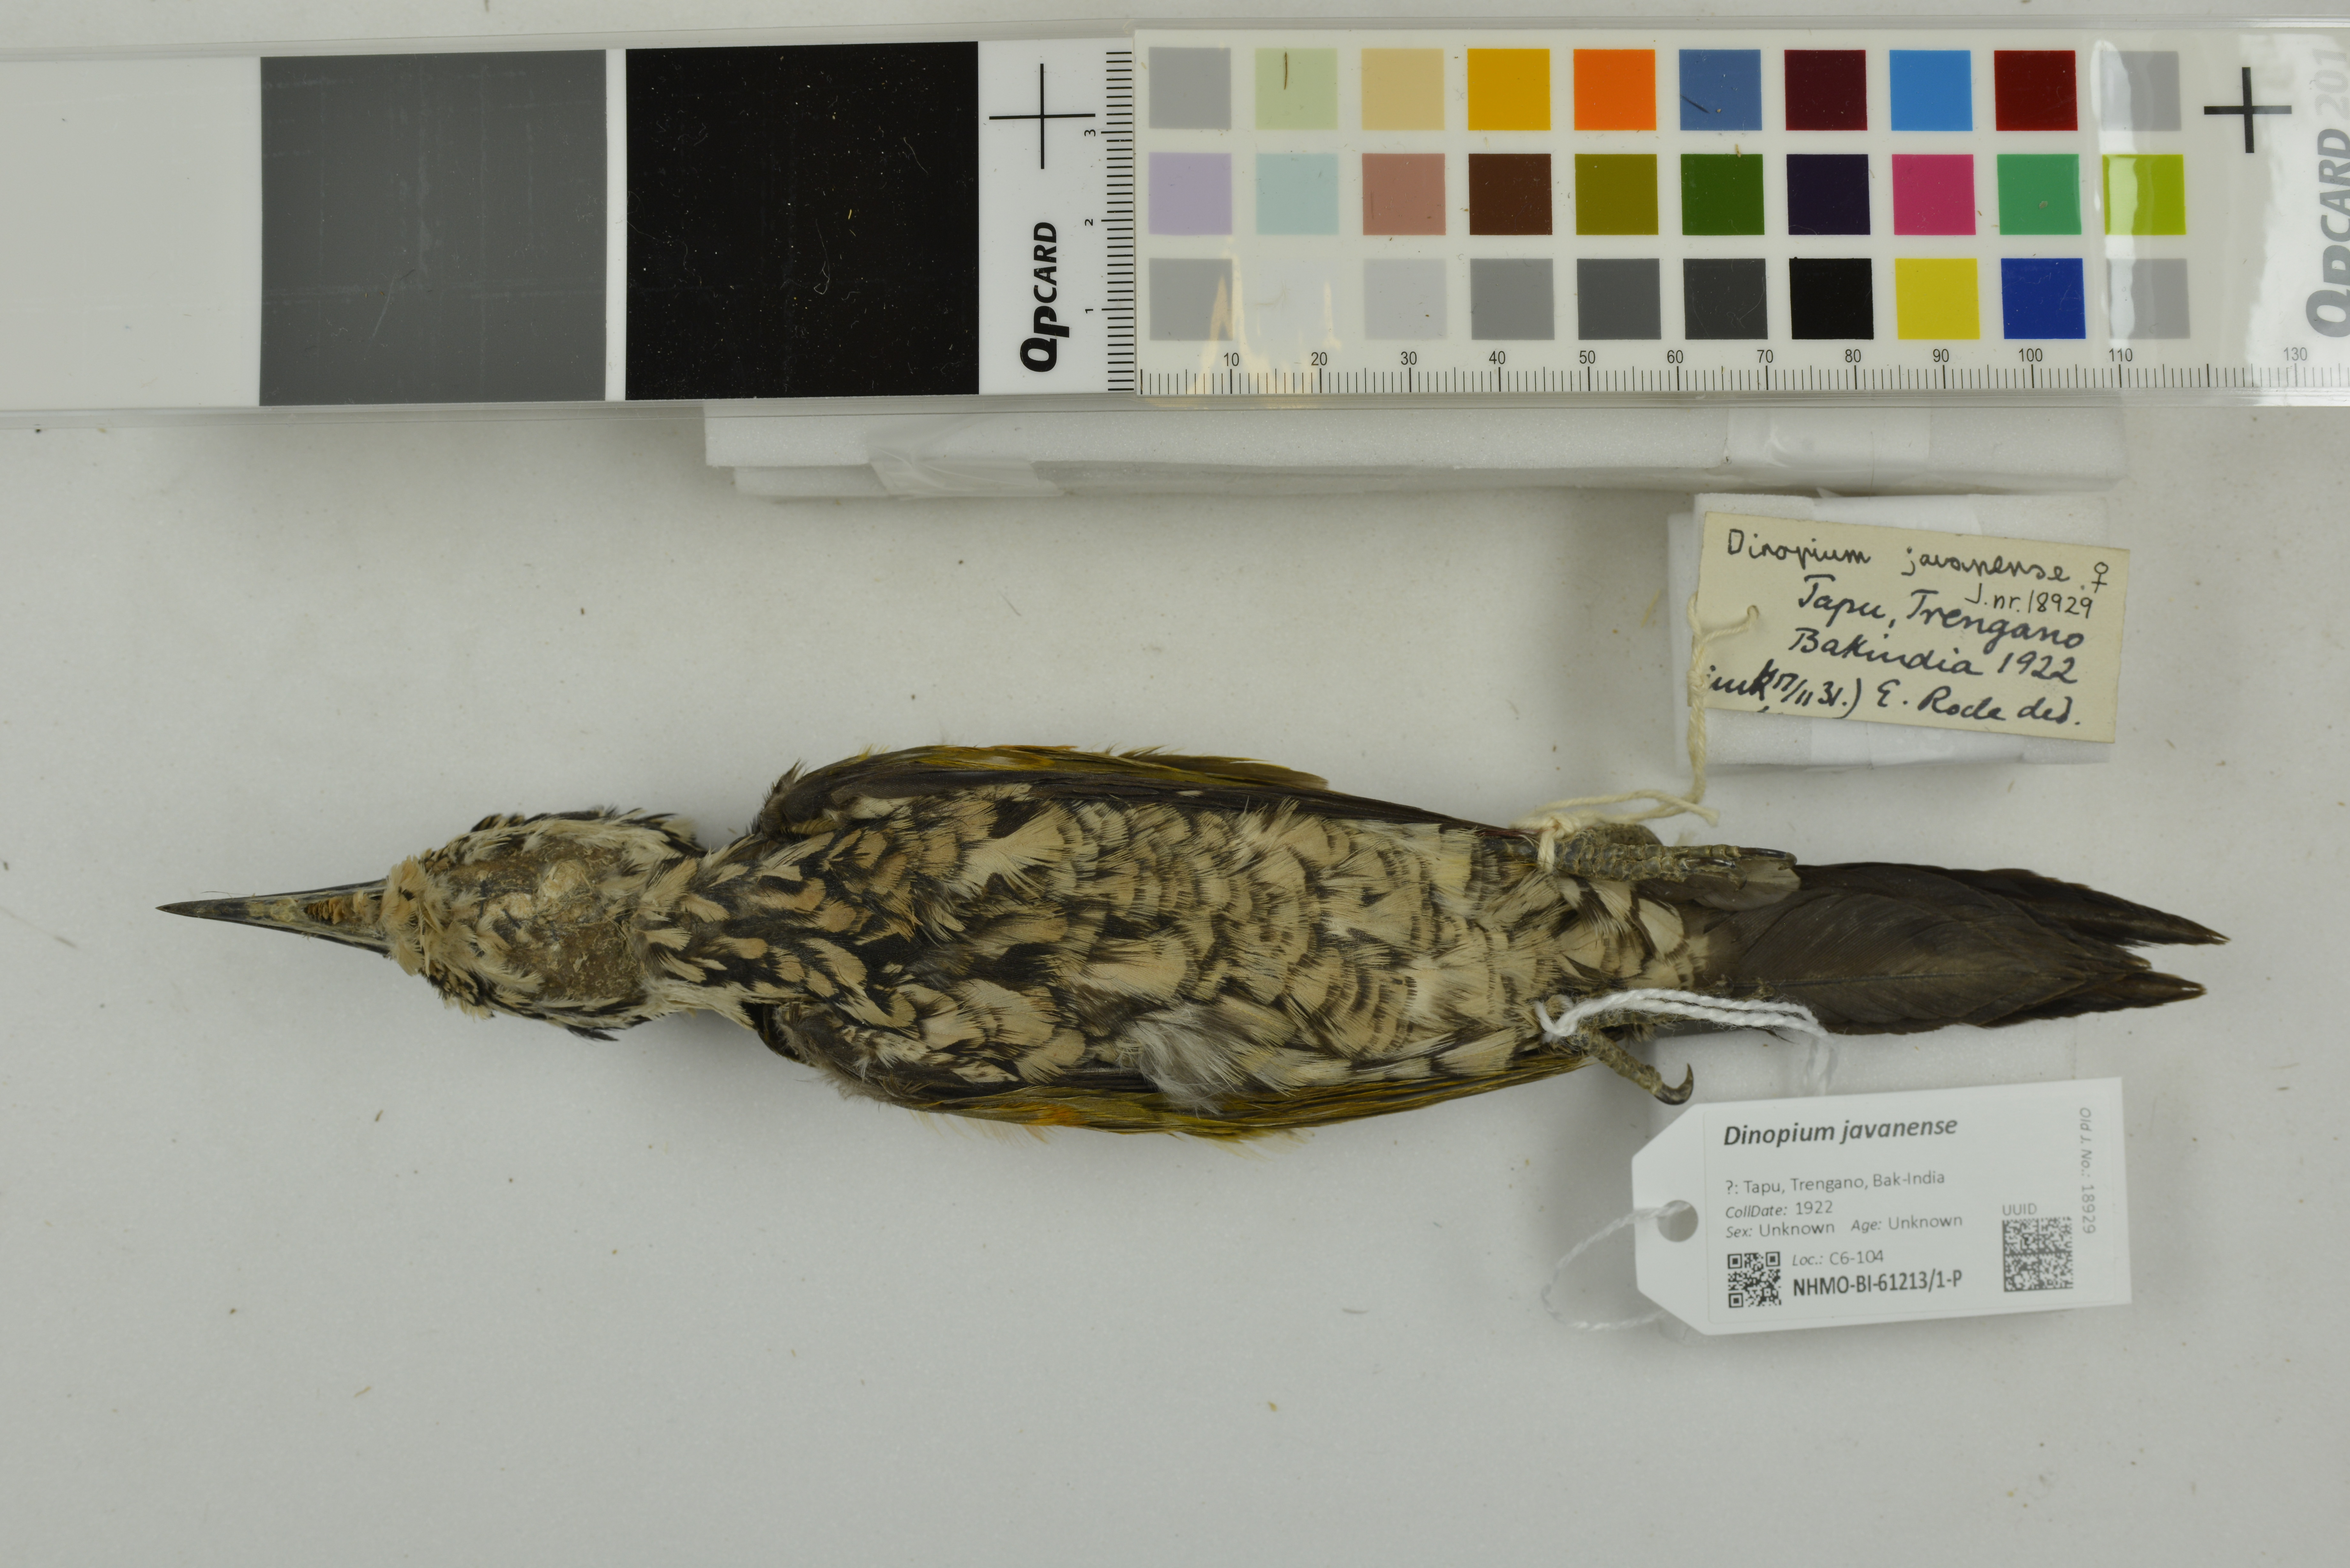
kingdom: Animalia
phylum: Chordata
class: Aves
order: Piciformes
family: Picidae
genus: Dinopium
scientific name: Dinopium javanense
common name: Common flameback
